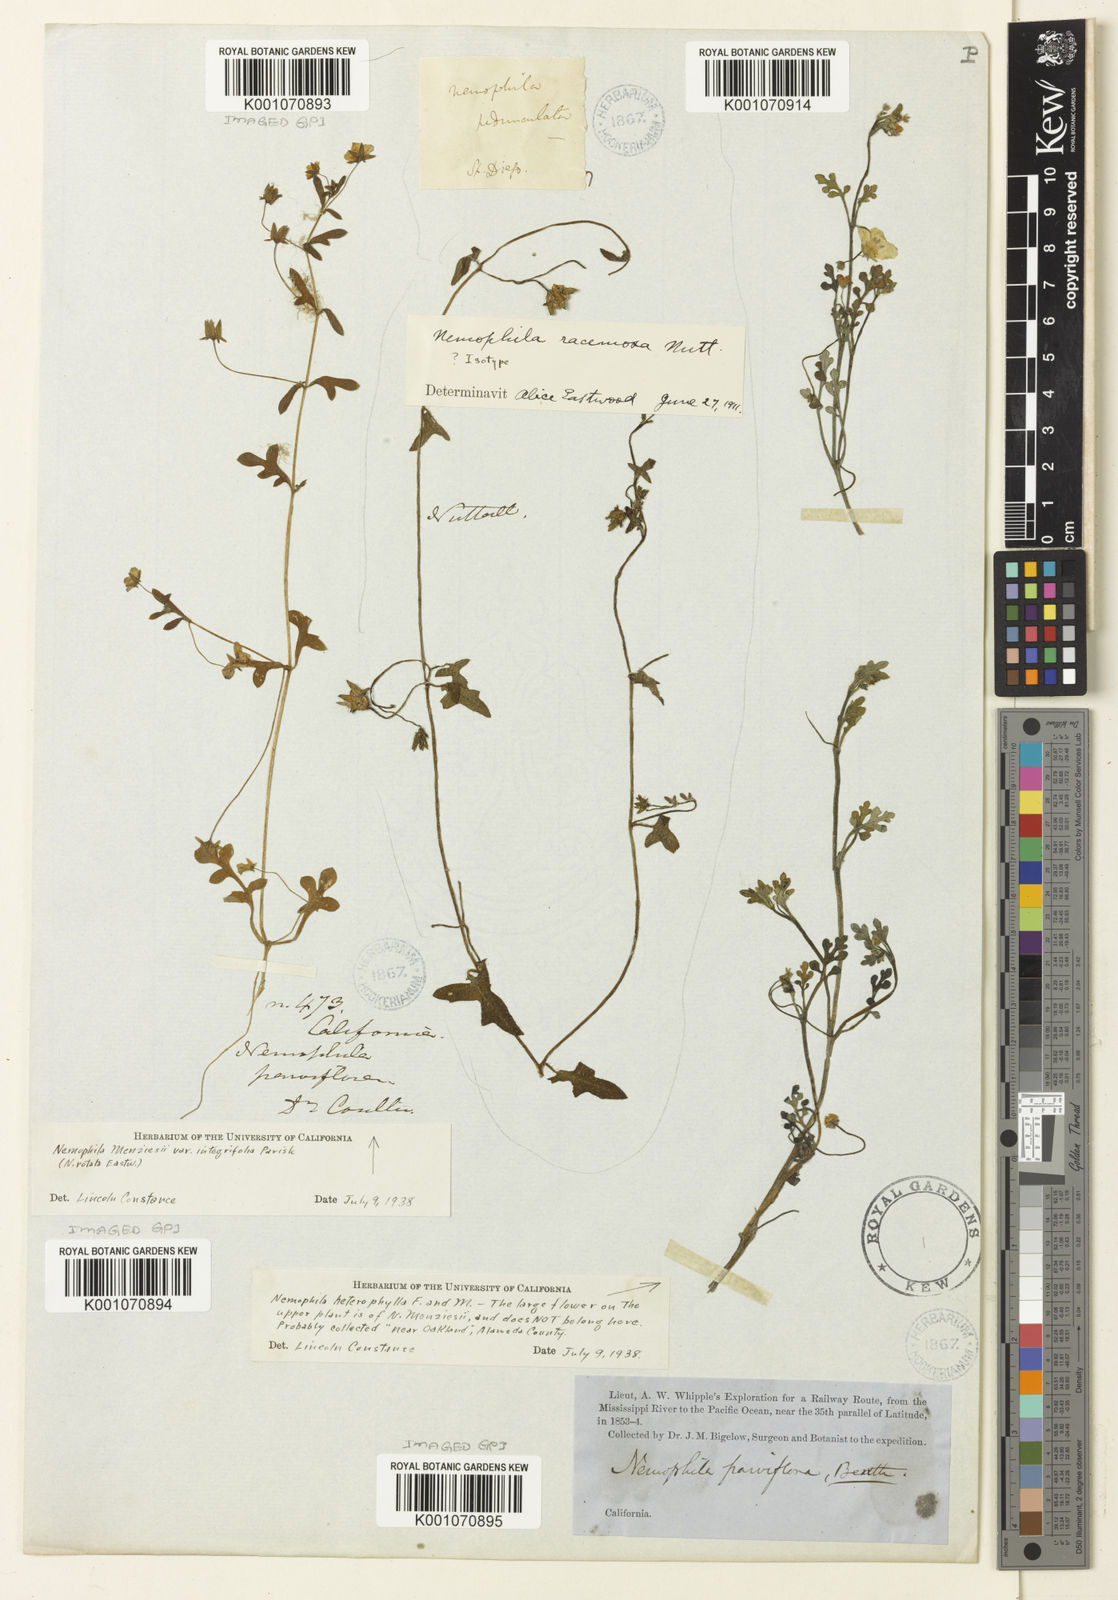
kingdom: Plantae
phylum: Tracheophyta
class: Magnoliopsida
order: Boraginales
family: Hydrophyllaceae
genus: Pholistoma
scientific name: Pholistoma racemosum
